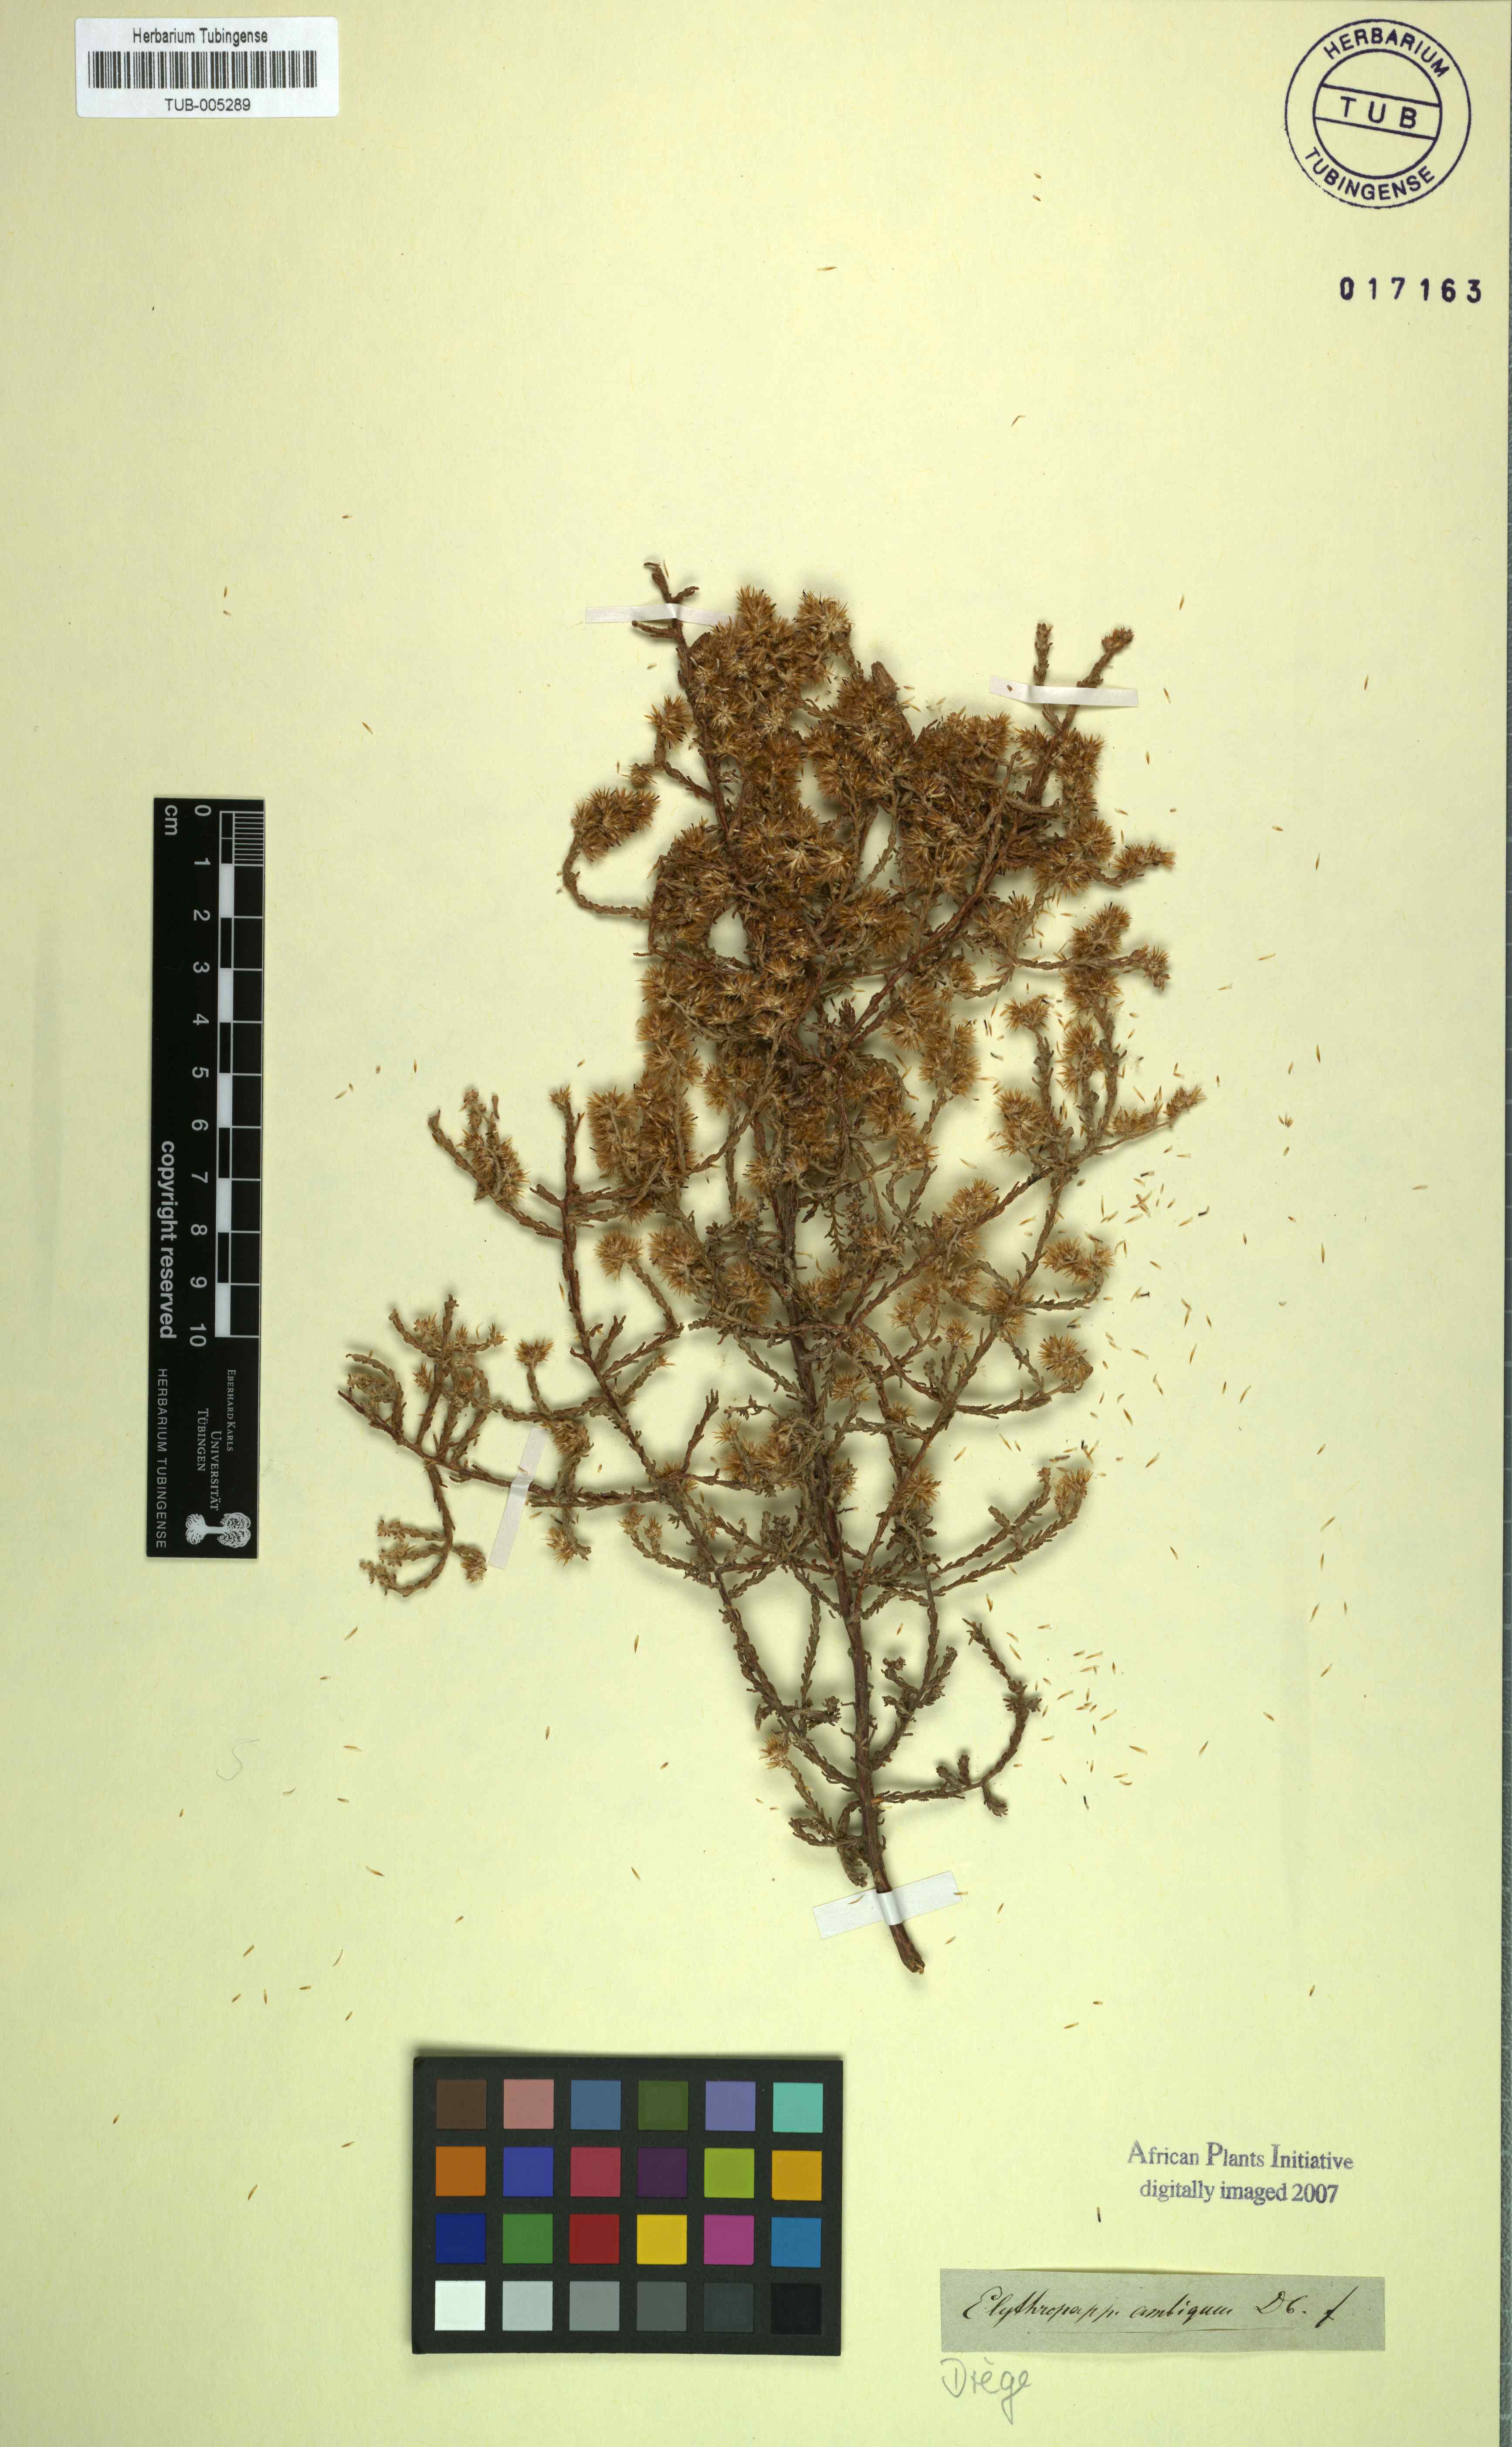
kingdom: Plantae
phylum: Tracheophyta
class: Magnoliopsida
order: Asterales
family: Asteraceae
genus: Myrovernix
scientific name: Myrovernix gnaphaloides
